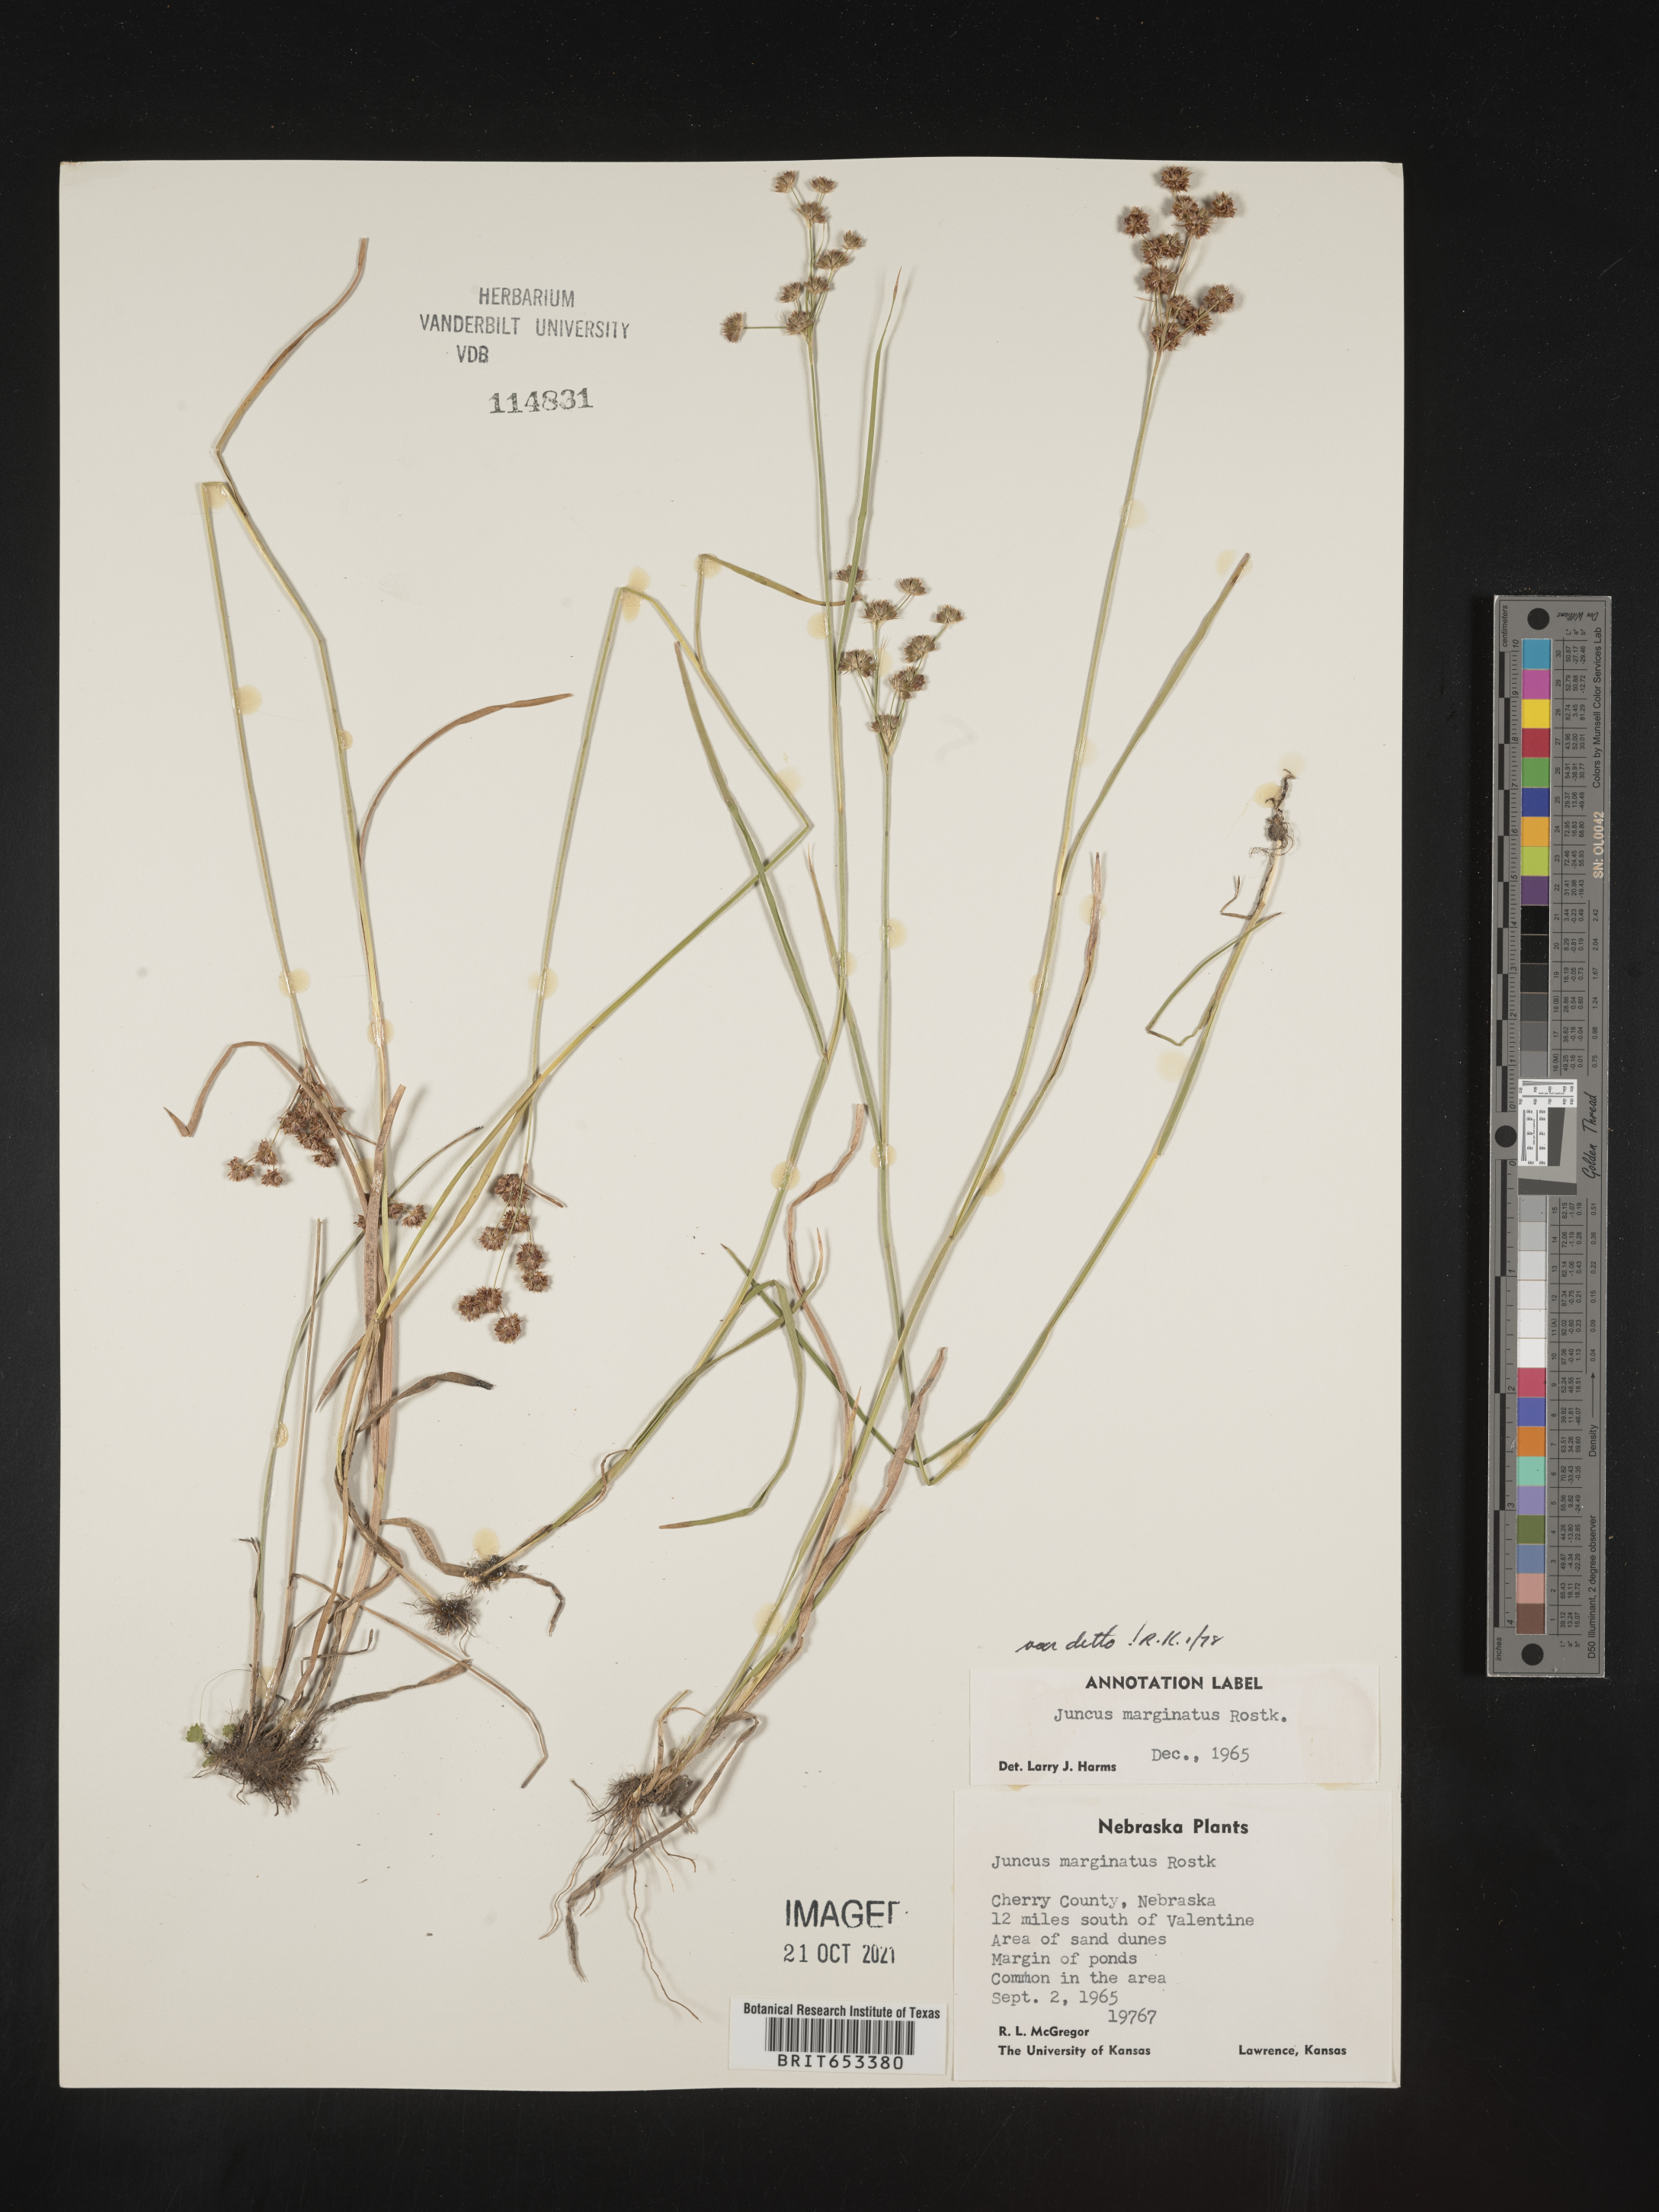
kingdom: Plantae
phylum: Tracheophyta
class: Liliopsida
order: Poales
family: Juncaceae
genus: Juncus
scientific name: Juncus marginatus
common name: Grass-leaf rush
